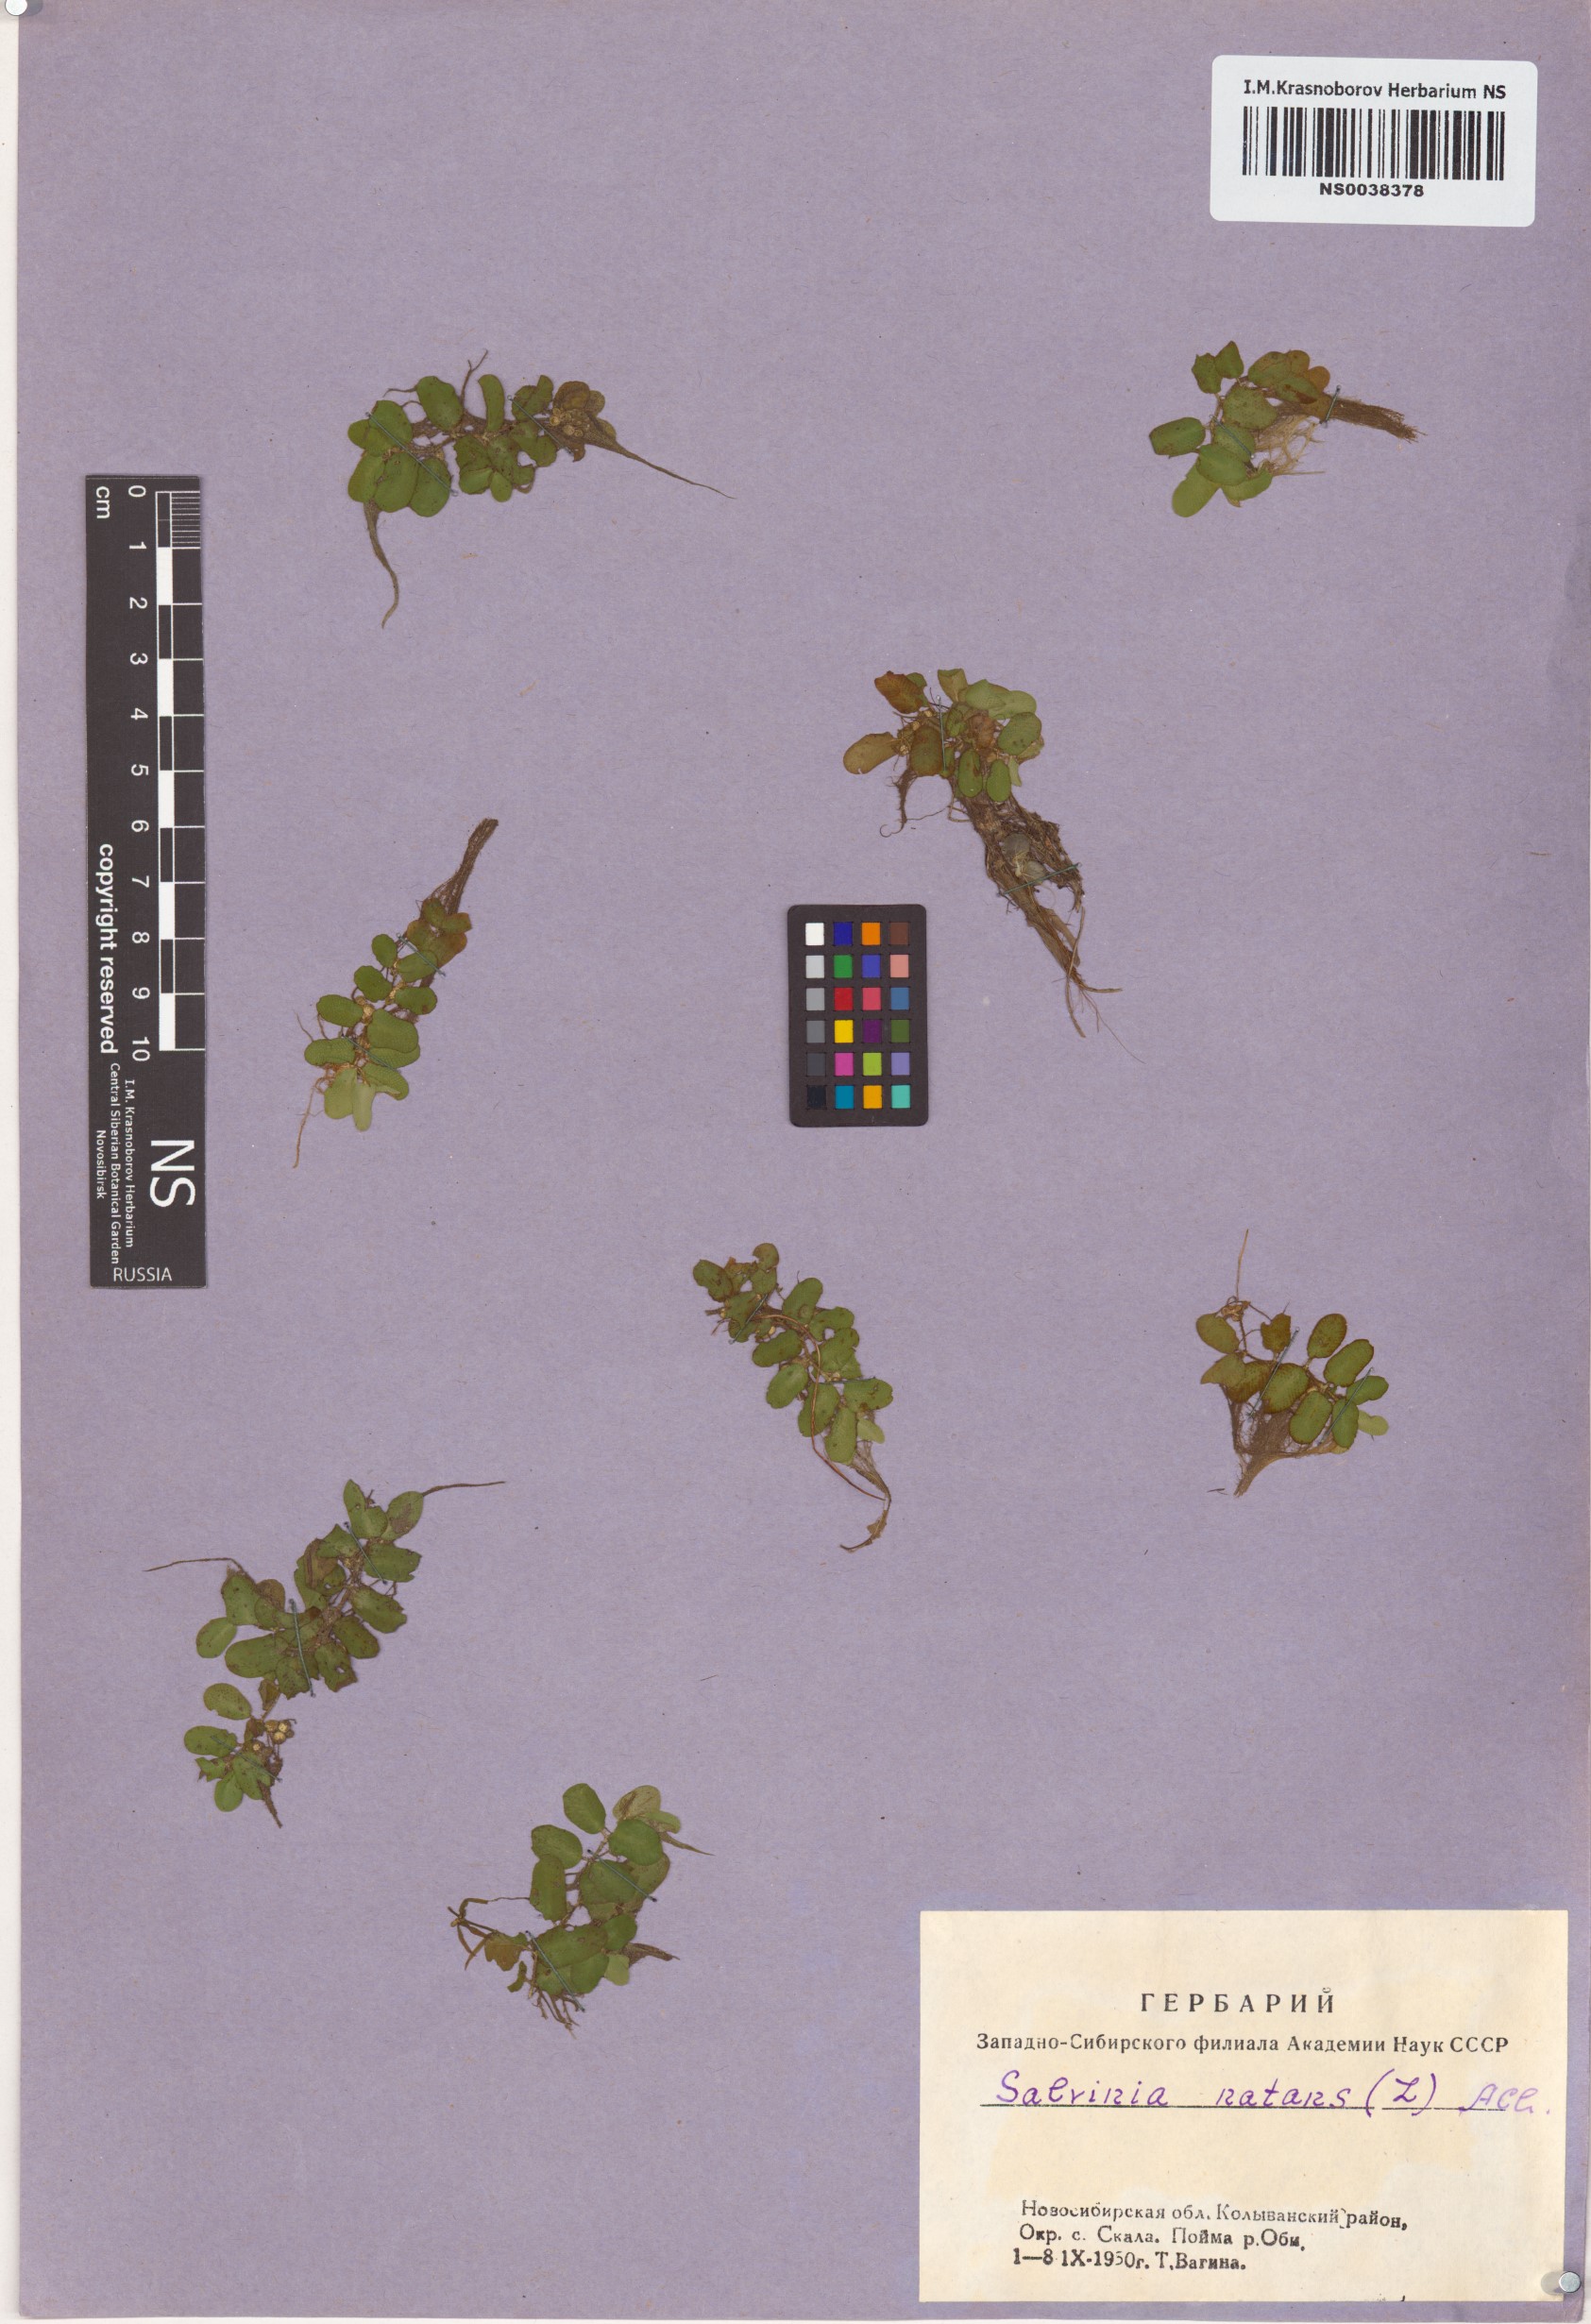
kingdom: Plantae
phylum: Tracheophyta
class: Polypodiopsida
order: Salviniales
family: Salviniaceae
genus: Salvinia
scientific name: Salvinia natans
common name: Floating fern
